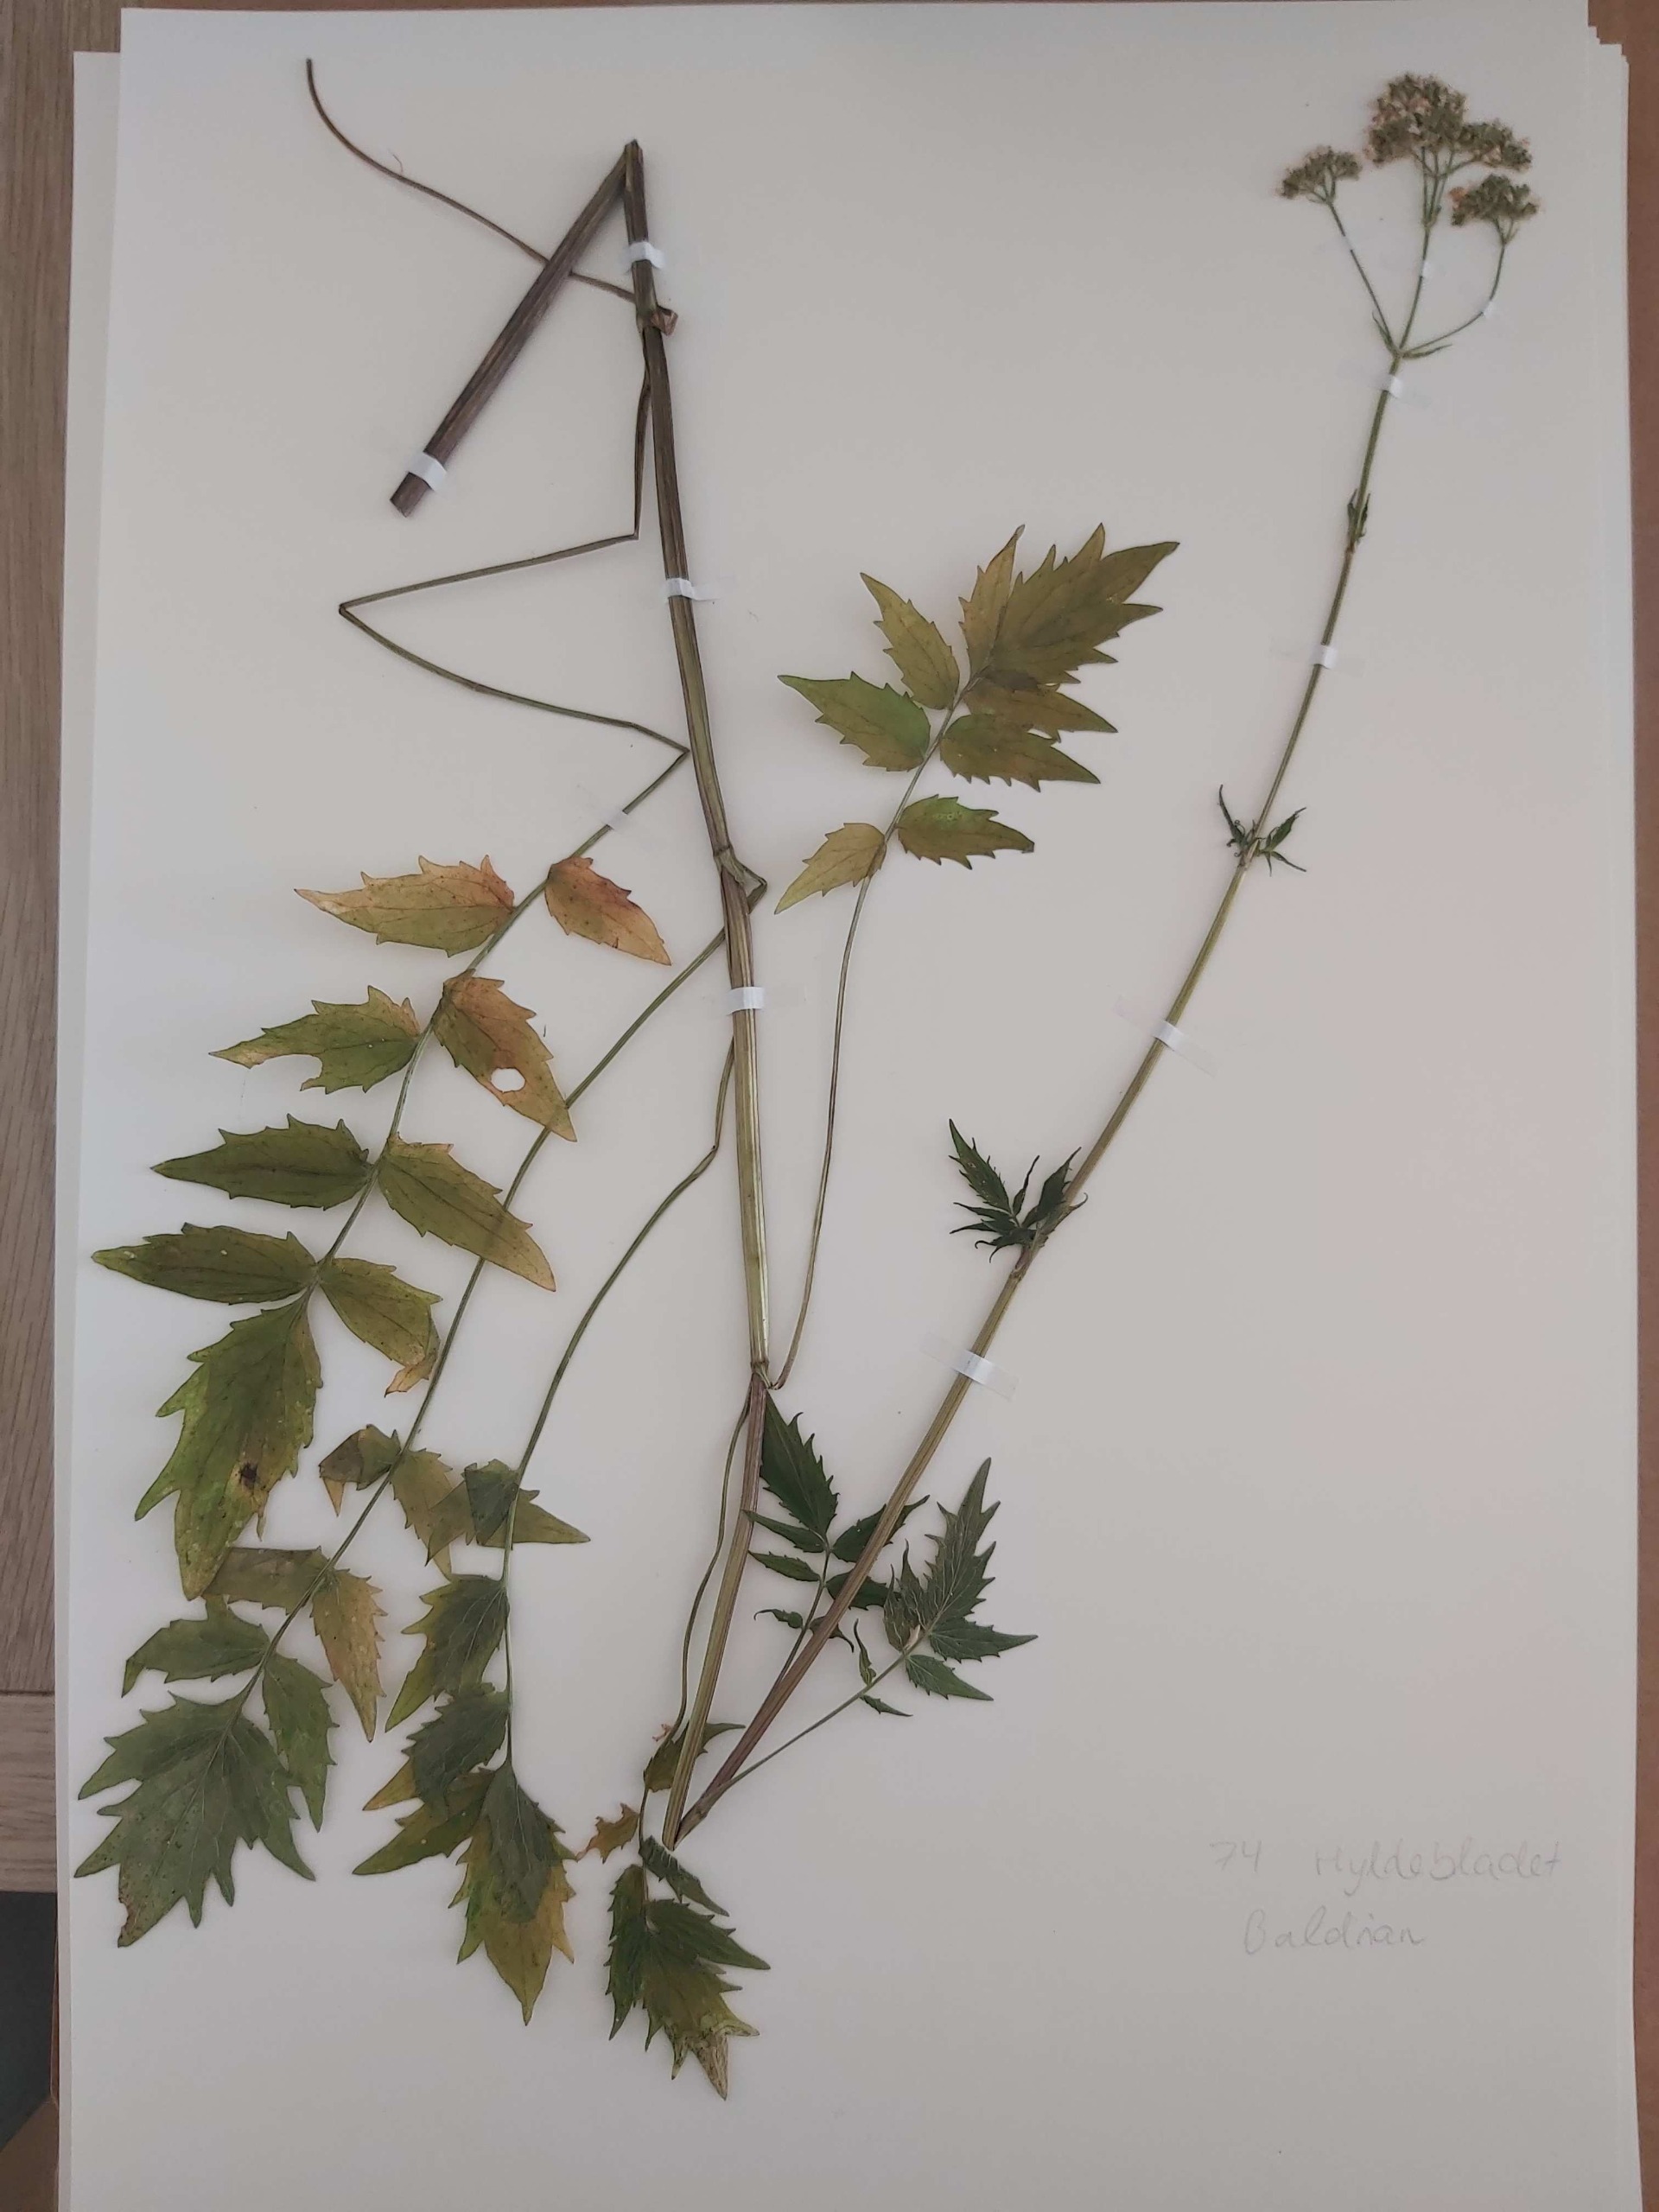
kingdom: Plantae
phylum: Tracheophyta
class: Magnoliopsida
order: Dipsacales
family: Caprifoliaceae
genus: Valeriana
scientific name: Valeriana sambucifolia
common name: Hyldebladet baldrian
